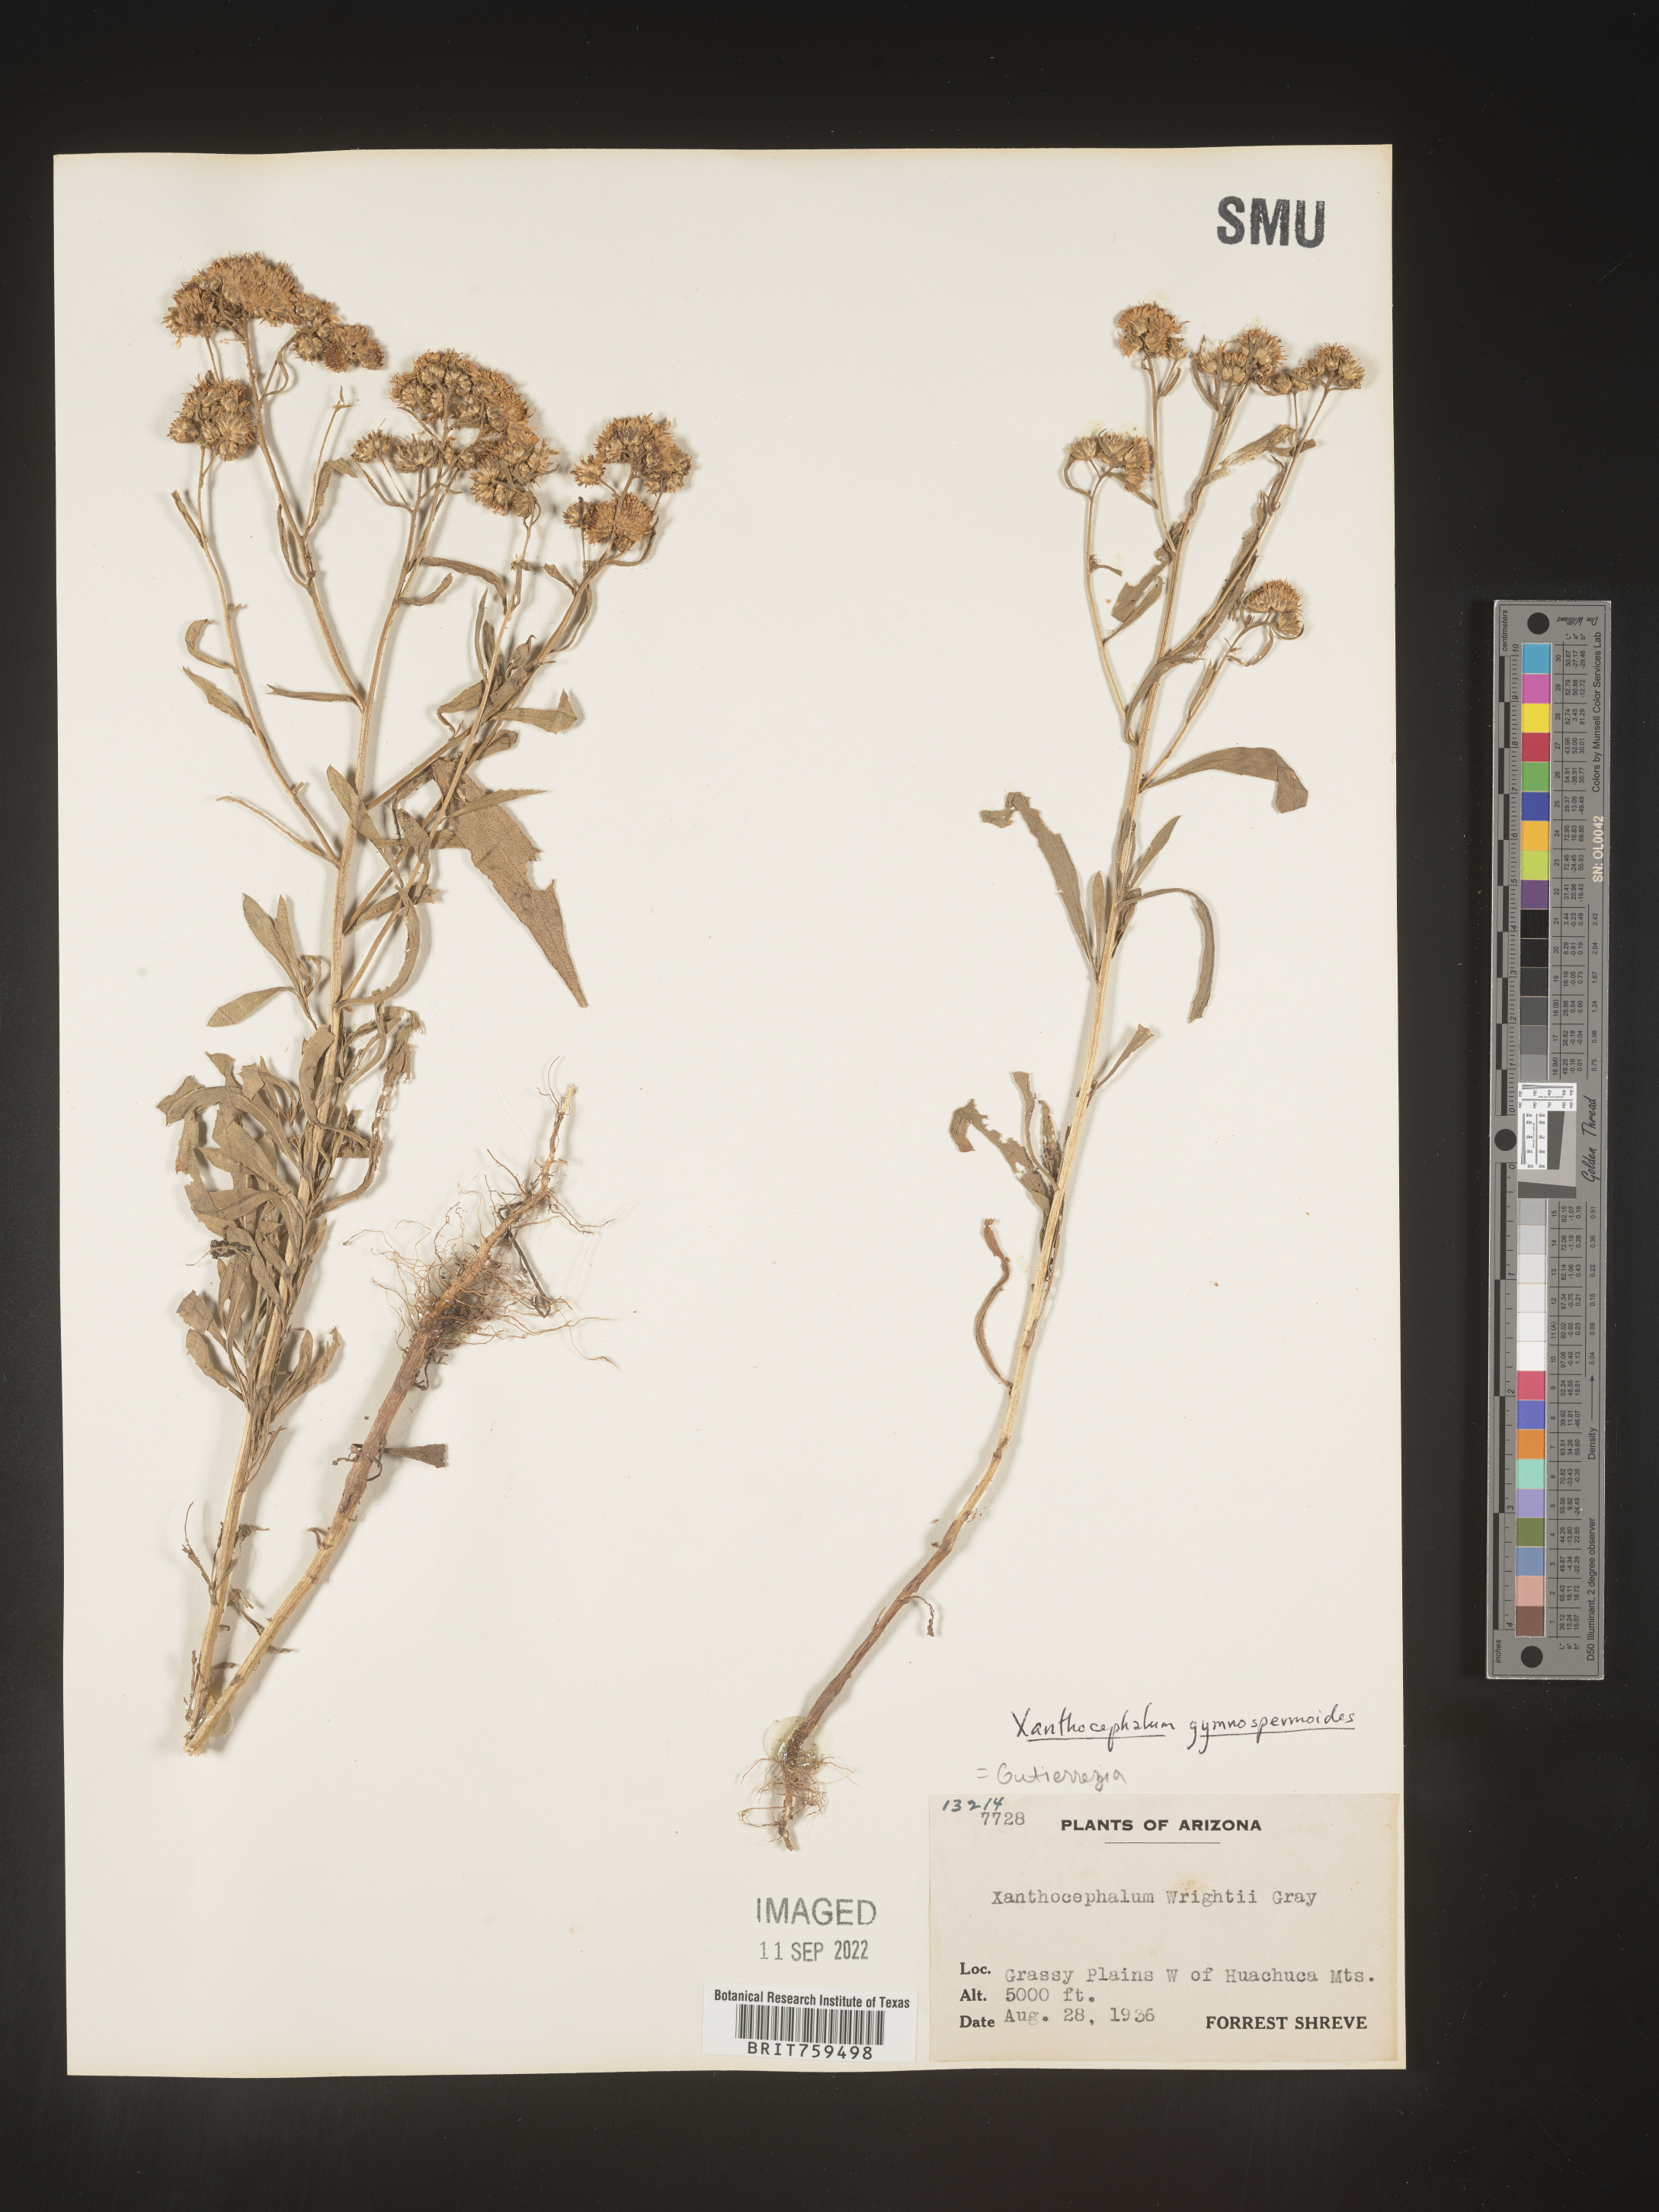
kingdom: Plantae
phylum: Tracheophyta
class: Magnoliopsida
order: Asterales
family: Asteraceae
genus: Xanthocephalum
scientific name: Xanthocephalum
